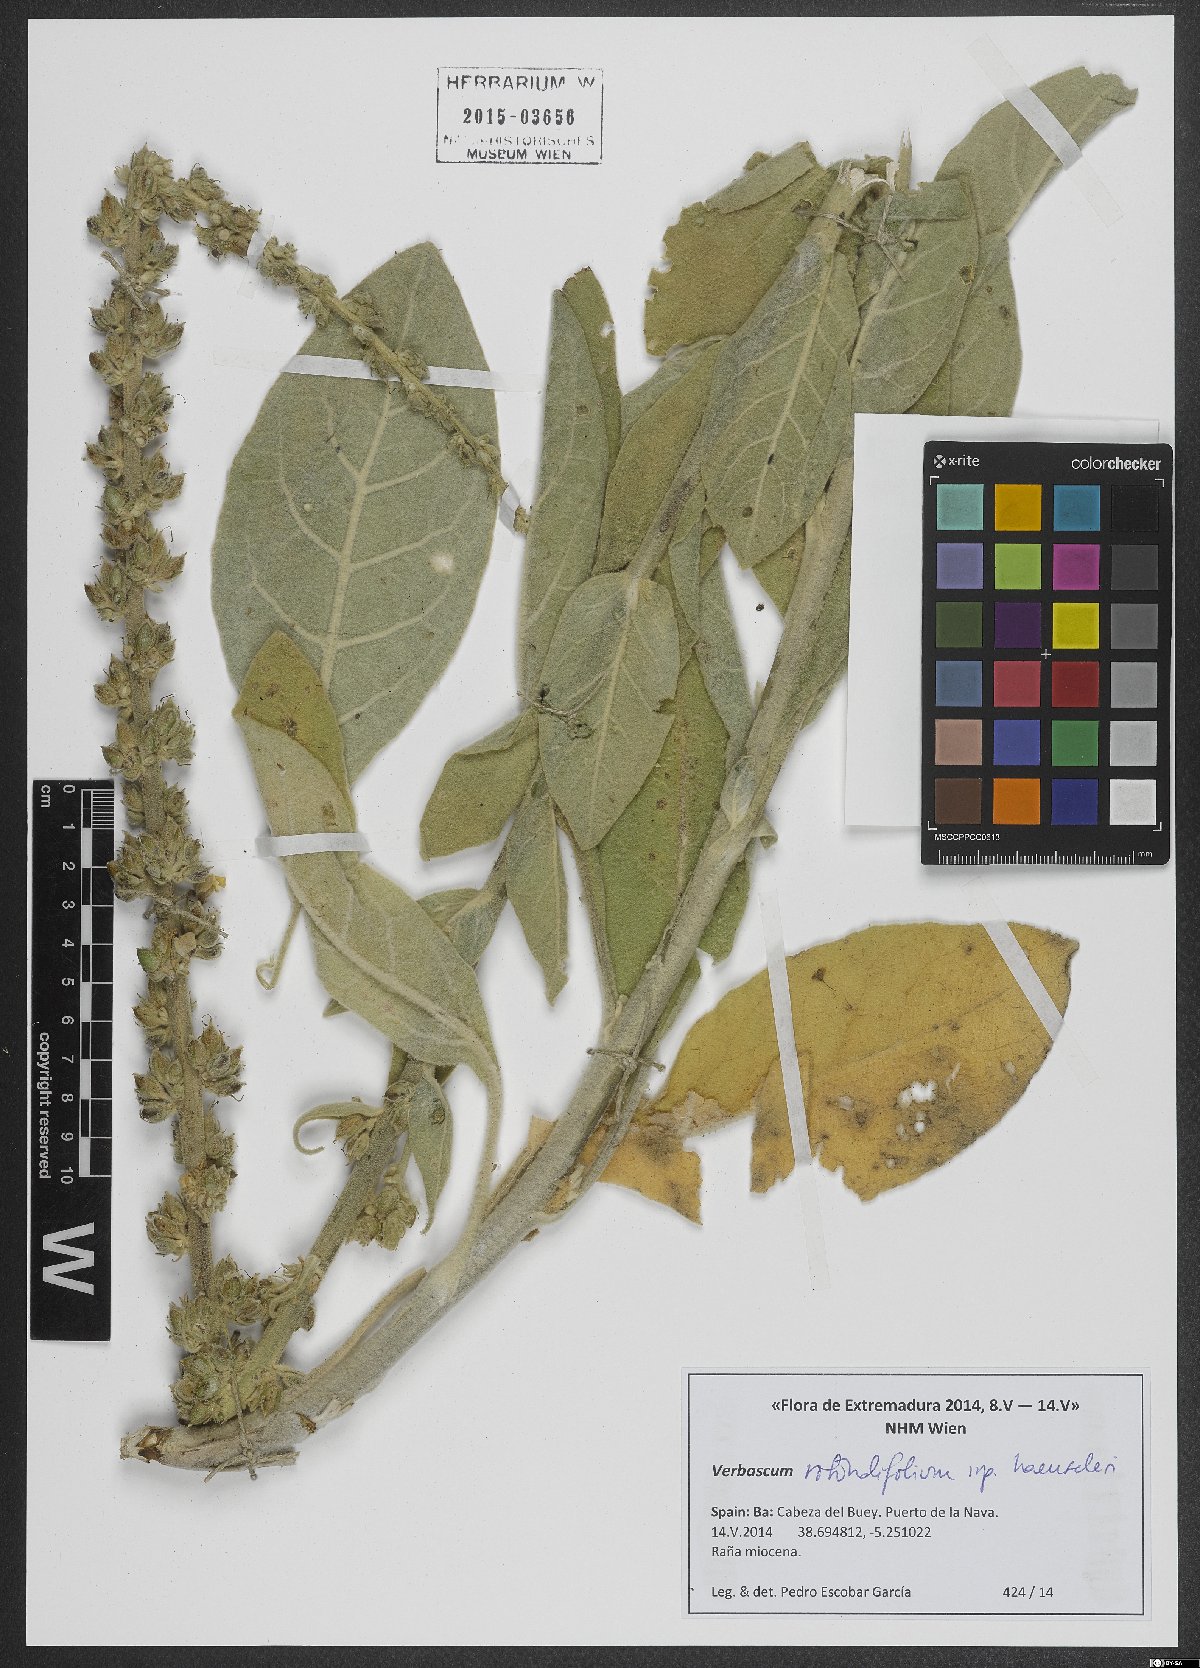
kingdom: Plantae
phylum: Tracheophyta
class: Magnoliopsida
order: Lamiales
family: Scrophulariaceae
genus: Verbascum
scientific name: Verbascum rotundifolium
